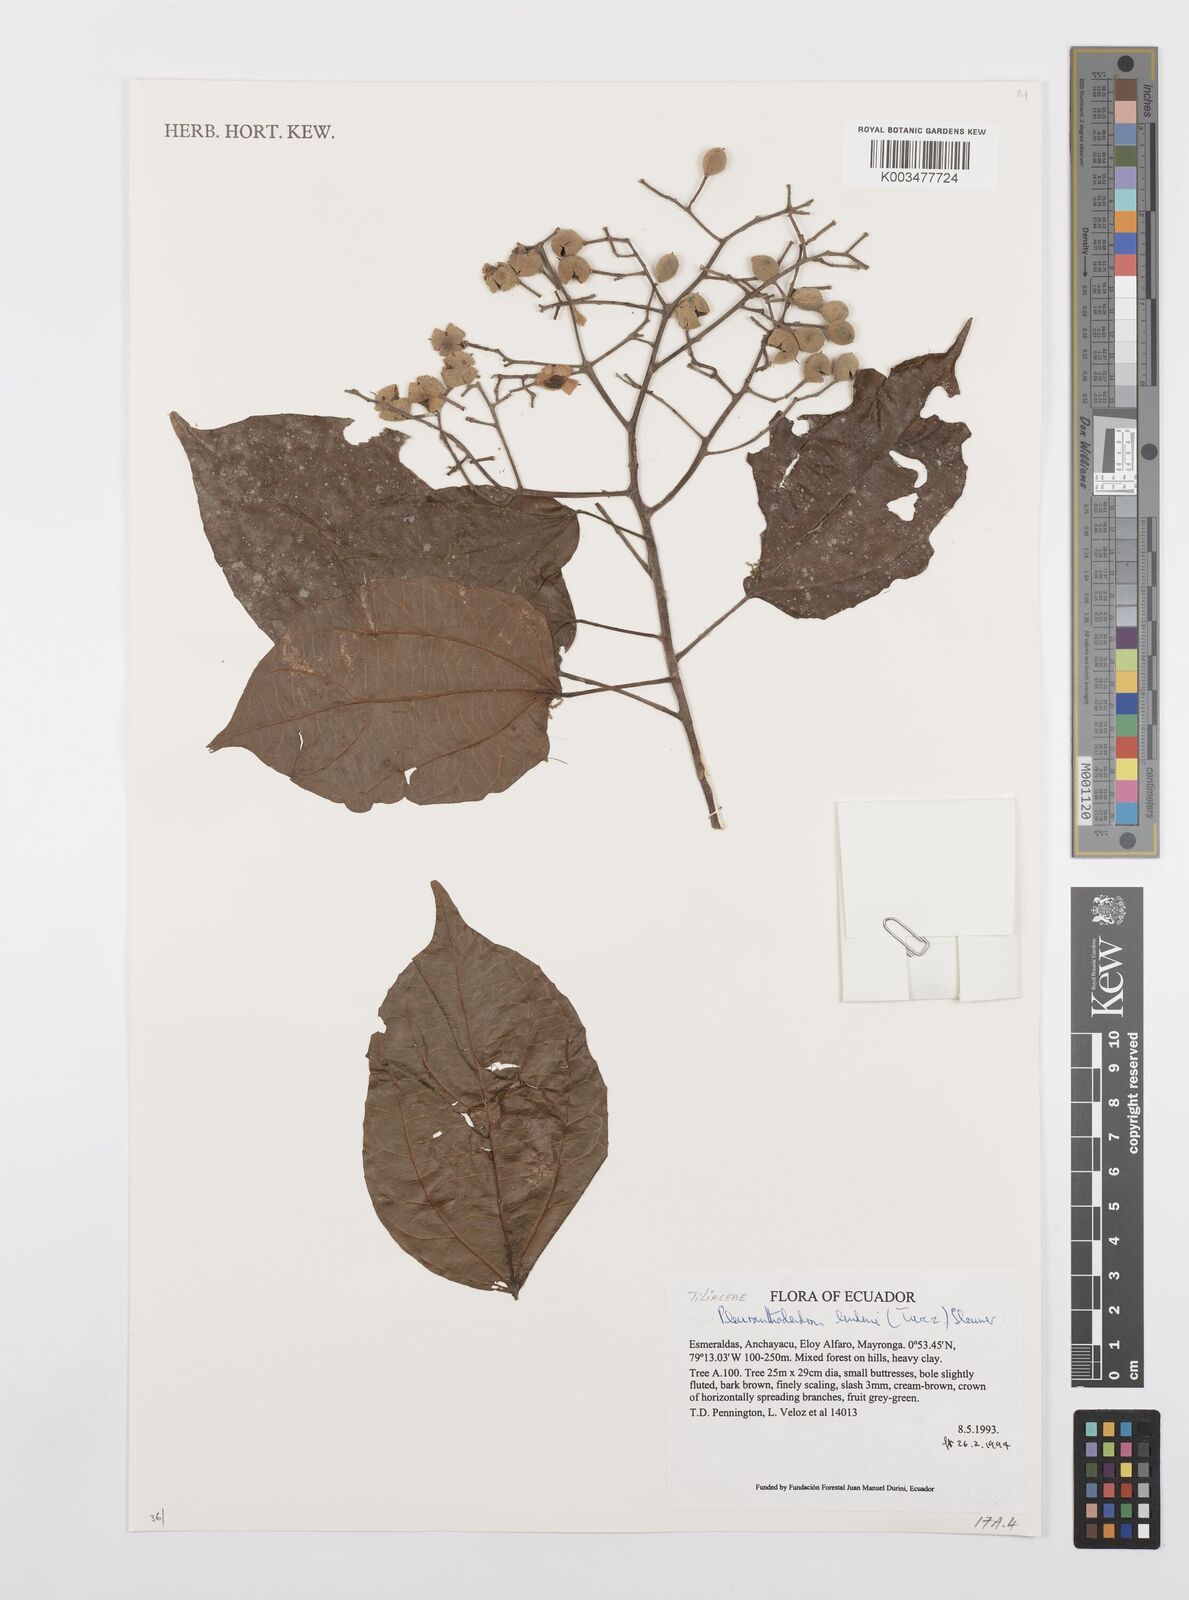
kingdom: Plantae
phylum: Tracheophyta
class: Magnoliopsida
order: Malpighiales
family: Salicaceae
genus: Pleuranthodendron
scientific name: Pleuranthodendron lindenii
